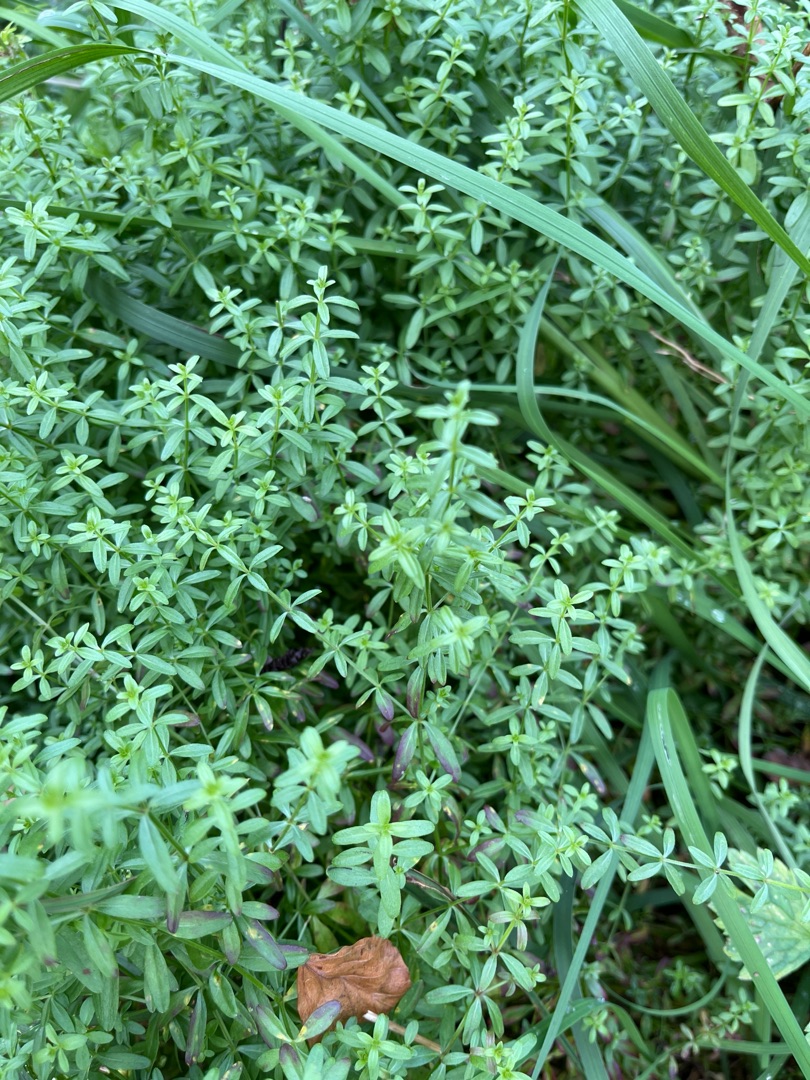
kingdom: Plantae
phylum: Tracheophyta
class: Magnoliopsida
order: Gentianales
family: Rubiaceae
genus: Galium
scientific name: Galium palustre
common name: Kær-snerre
